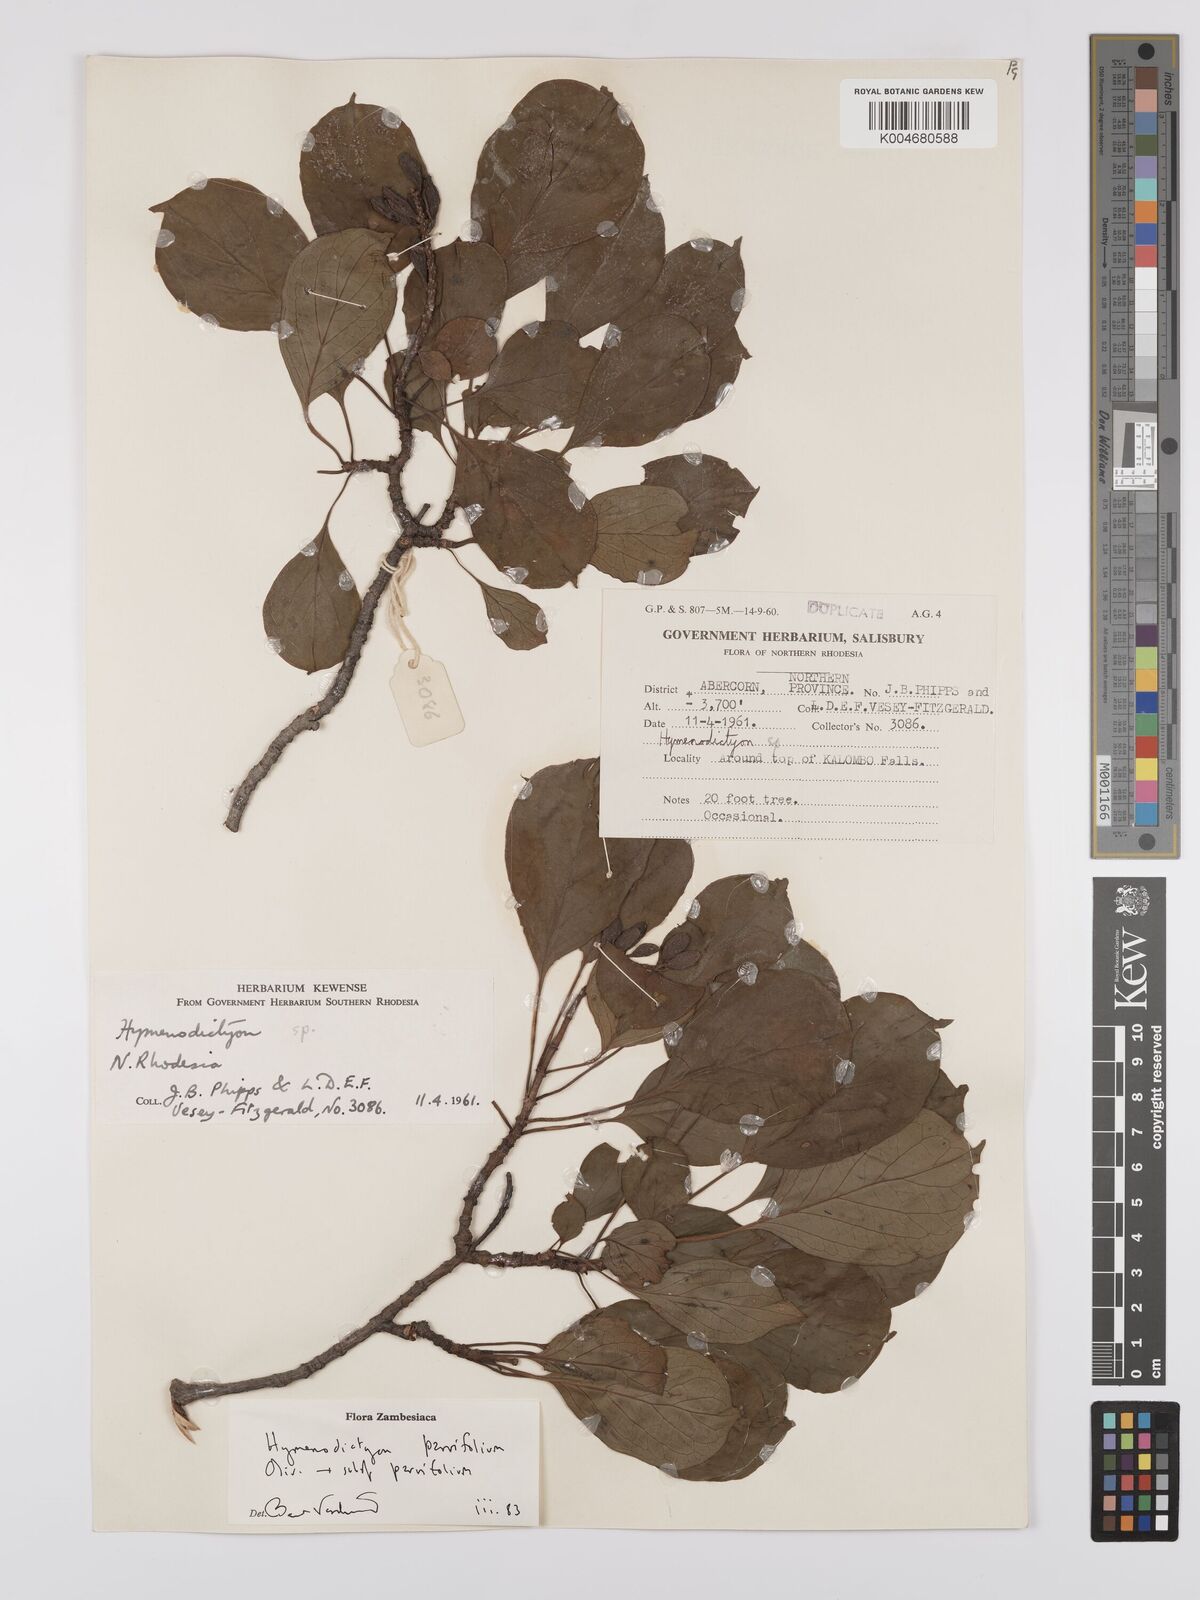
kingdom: Plantae
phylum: Tracheophyta
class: Magnoliopsida
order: Gentianales
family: Rubiaceae
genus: Hymenodictyon
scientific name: Hymenodictyon parvifolium
